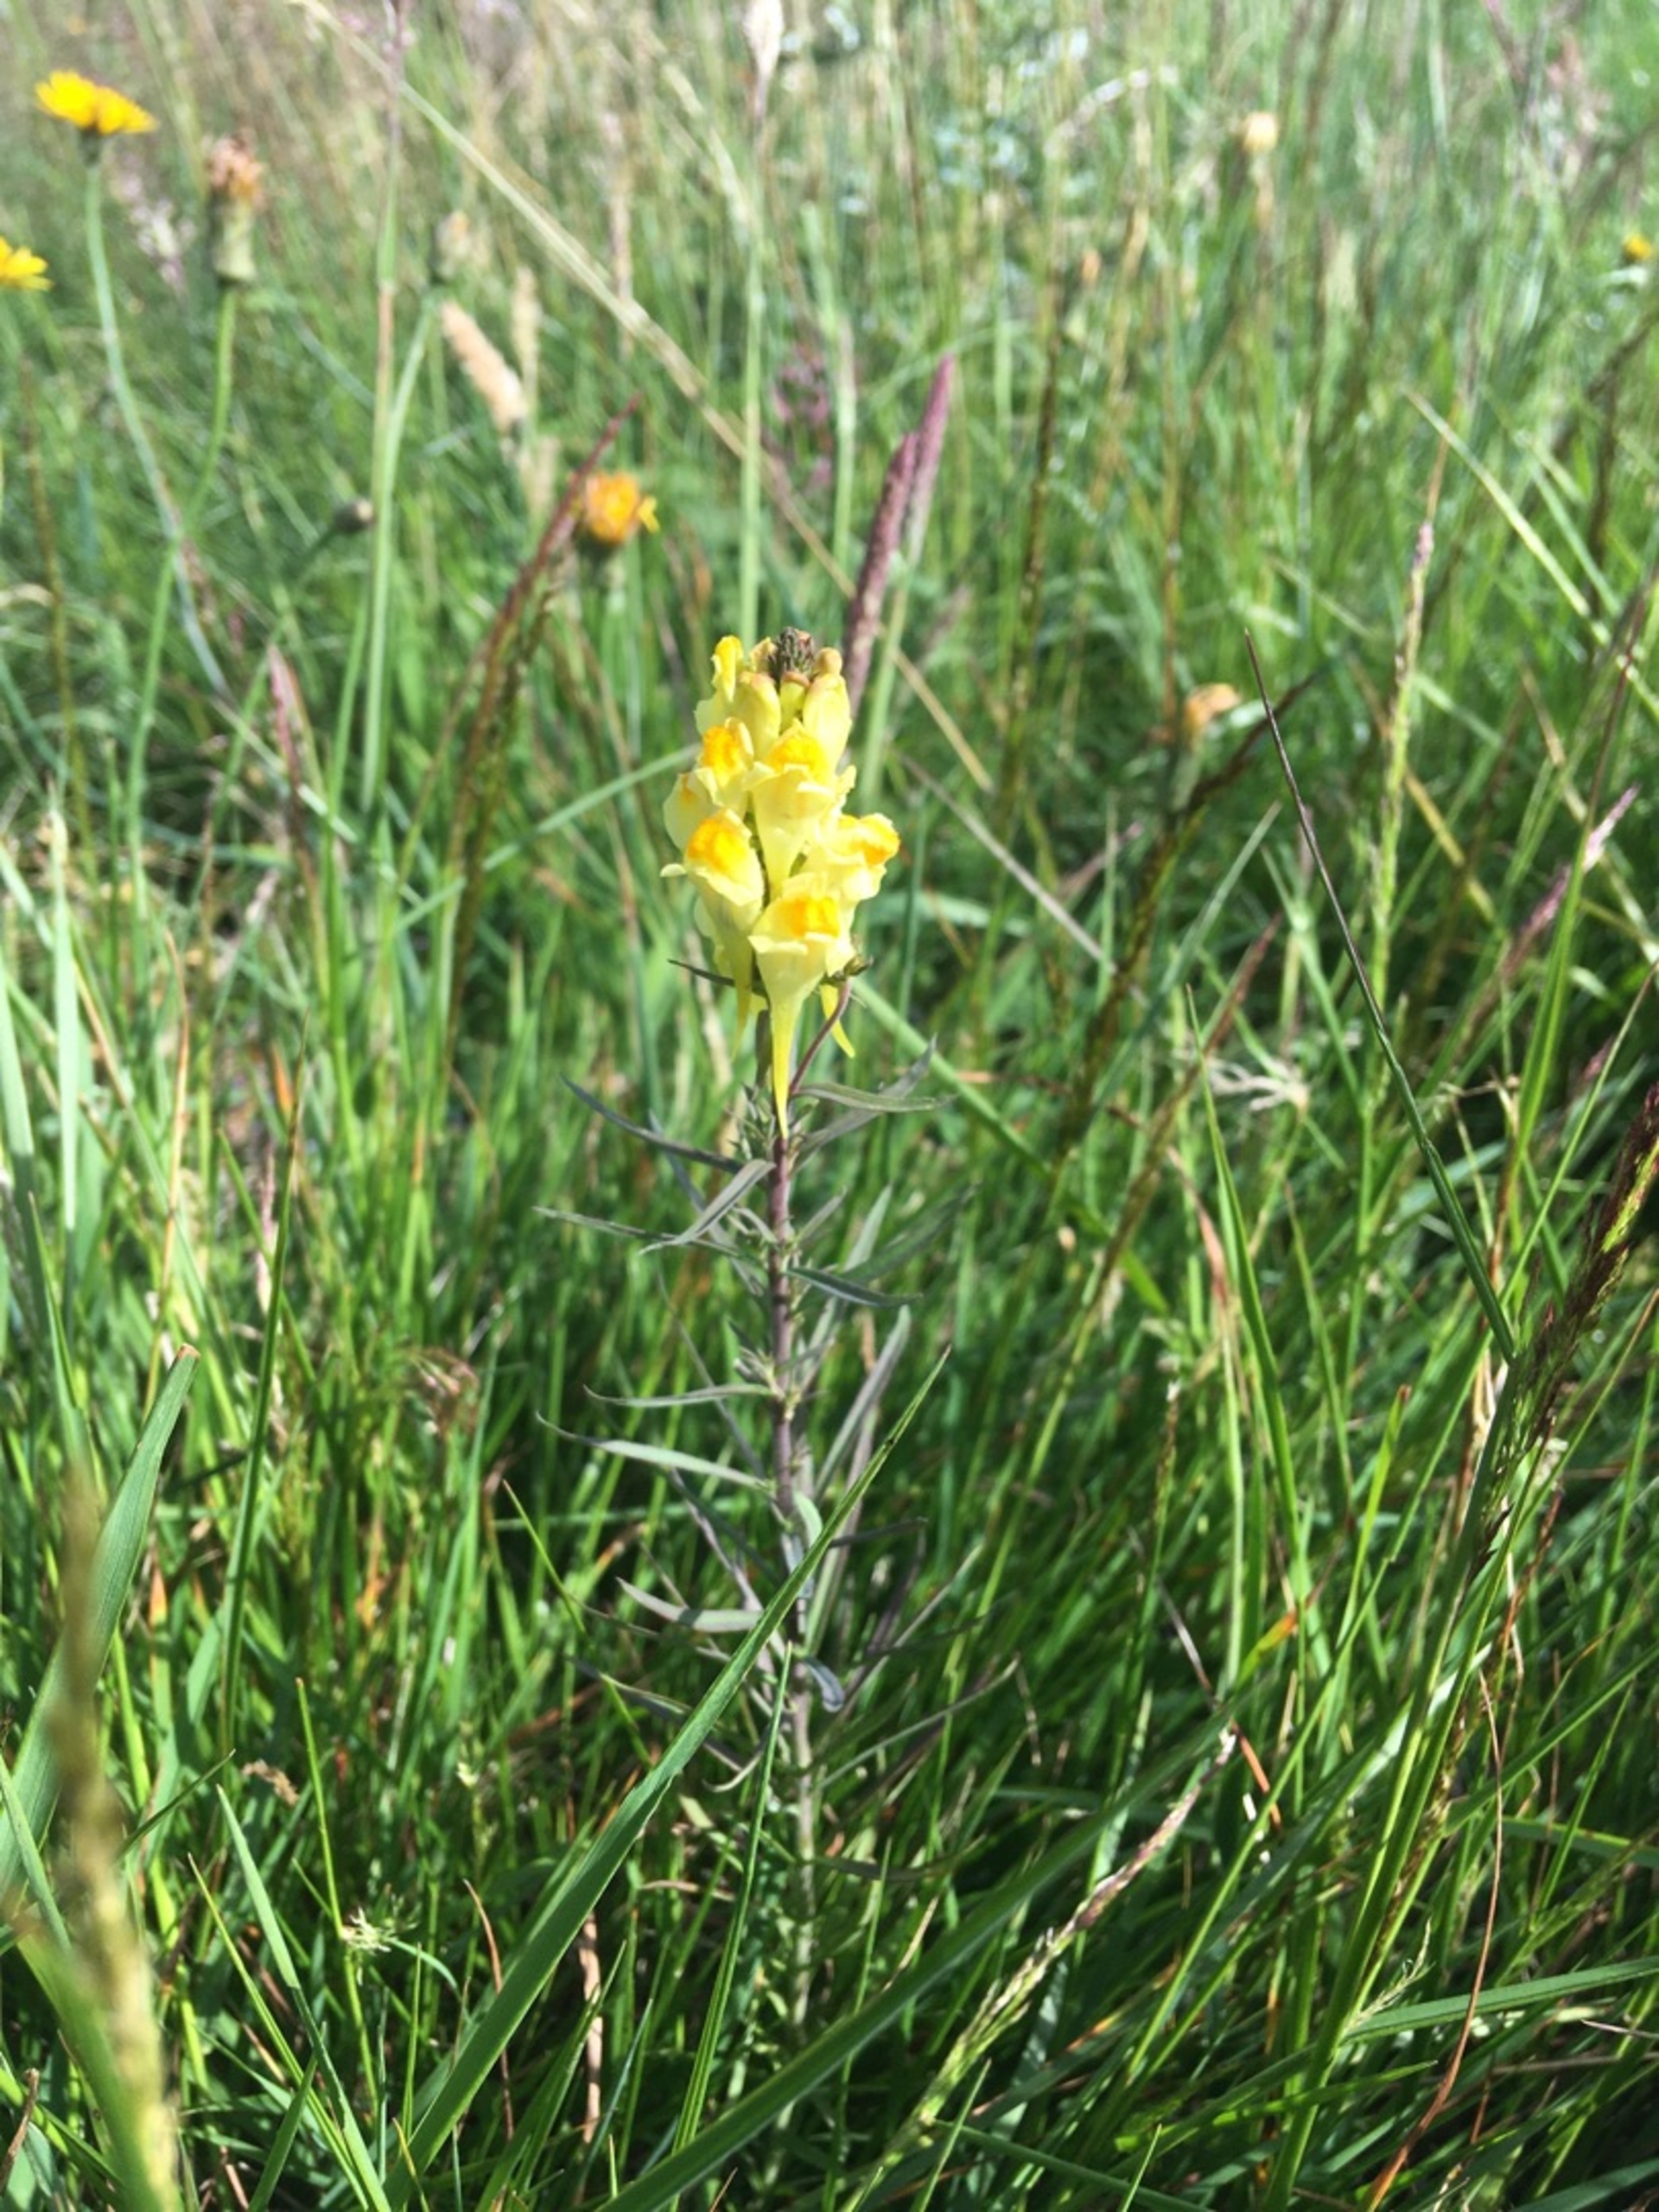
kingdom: Plantae
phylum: Tracheophyta
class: Magnoliopsida
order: Lamiales
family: Plantaginaceae
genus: Linaria
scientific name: Linaria vulgaris
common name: Almindelig torskemund
